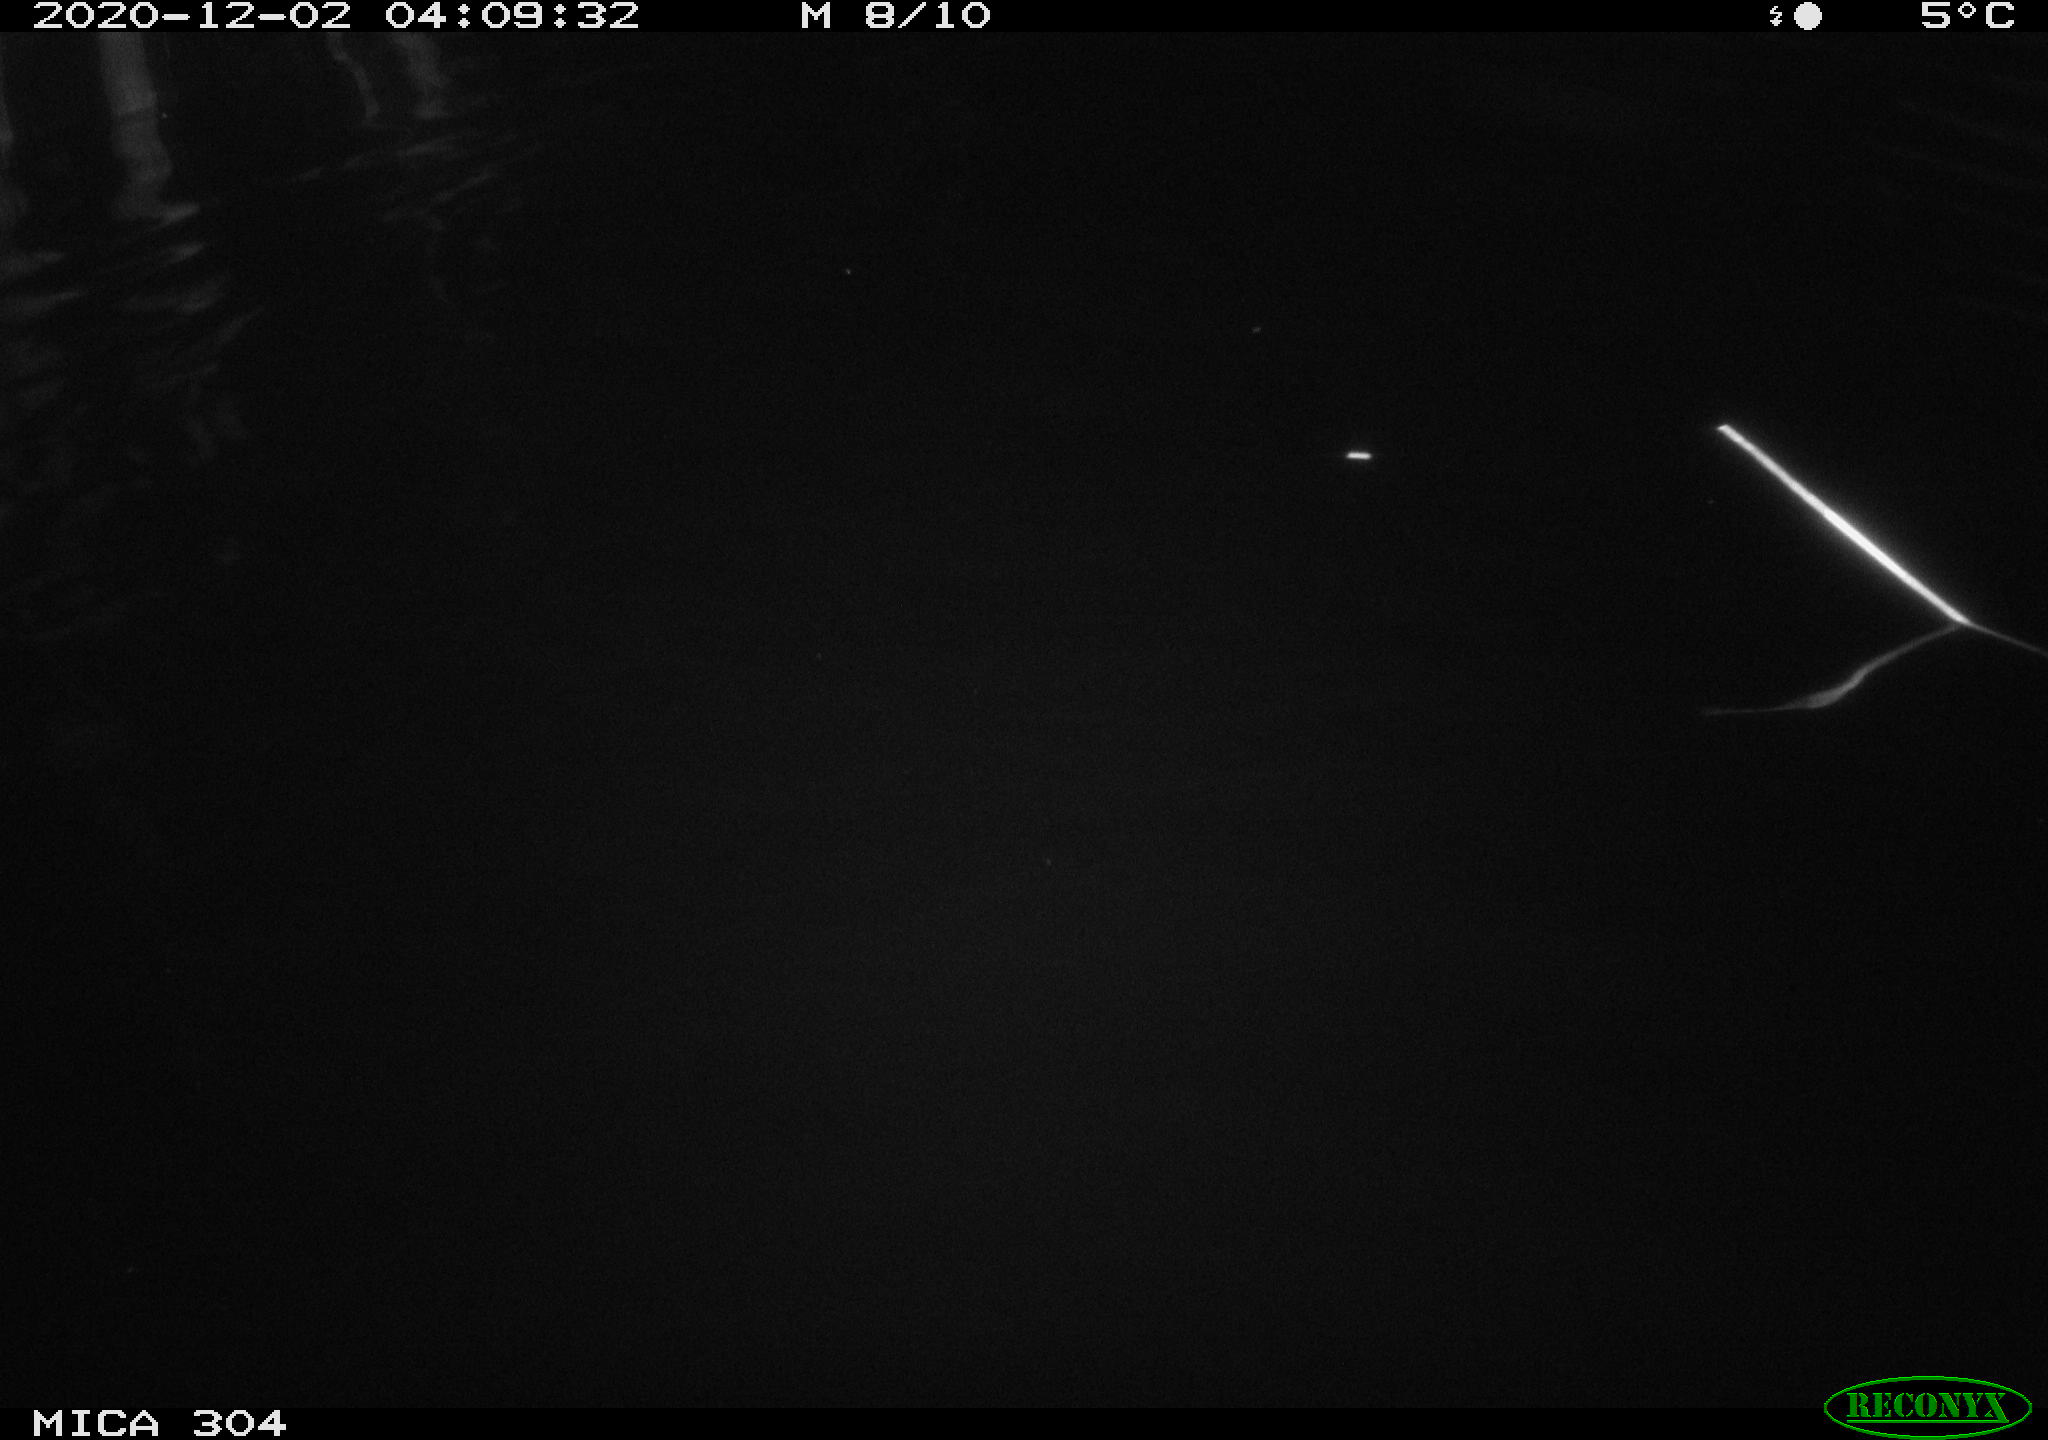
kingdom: Animalia
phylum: Chordata
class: Mammalia
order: Rodentia
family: Cricetidae
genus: Ondatra
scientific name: Ondatra zibethicus
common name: Muskrat
